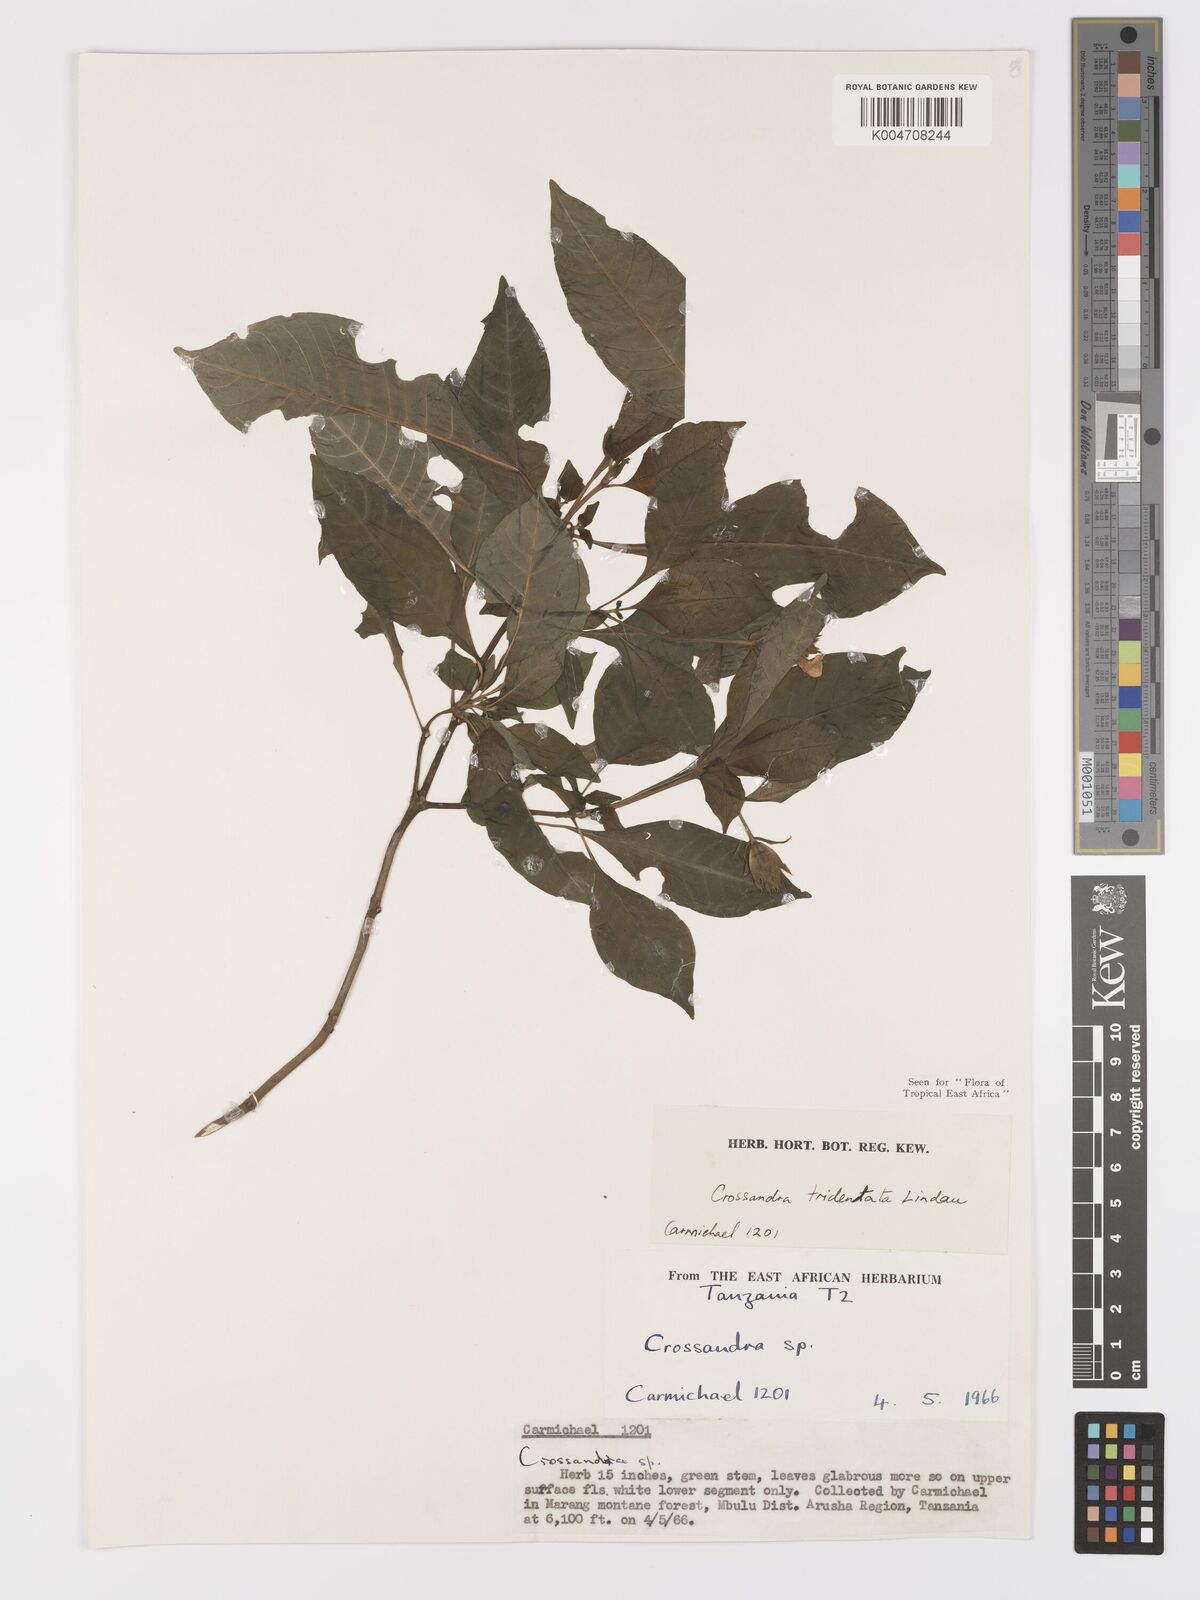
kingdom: Plantae
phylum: Tracheophyta
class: Magnoliopsida
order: Lamiales
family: Acanthaceae
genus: Crossandra
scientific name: Crossandra tridentata
